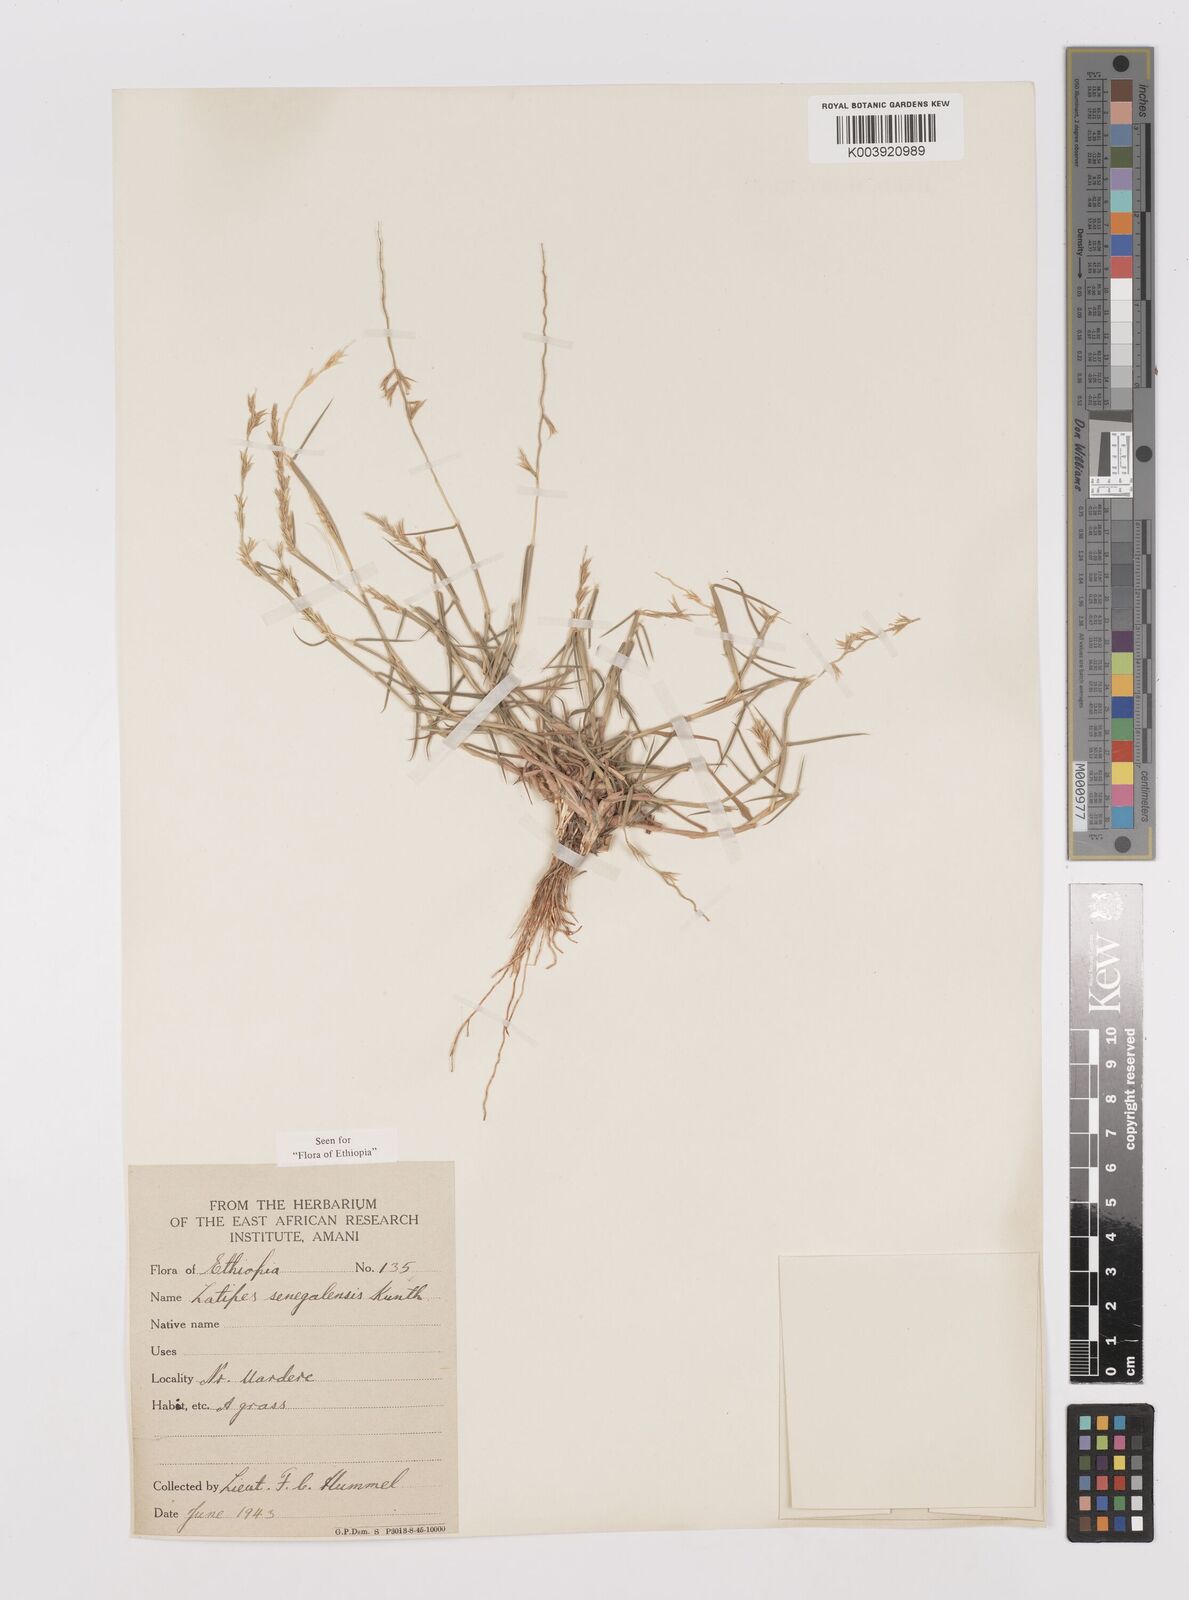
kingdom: Plantae
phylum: Tracheophyta
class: Liliopsida
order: Poales
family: Poaceae
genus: Leptothrium
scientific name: Leptothrium senegalense
